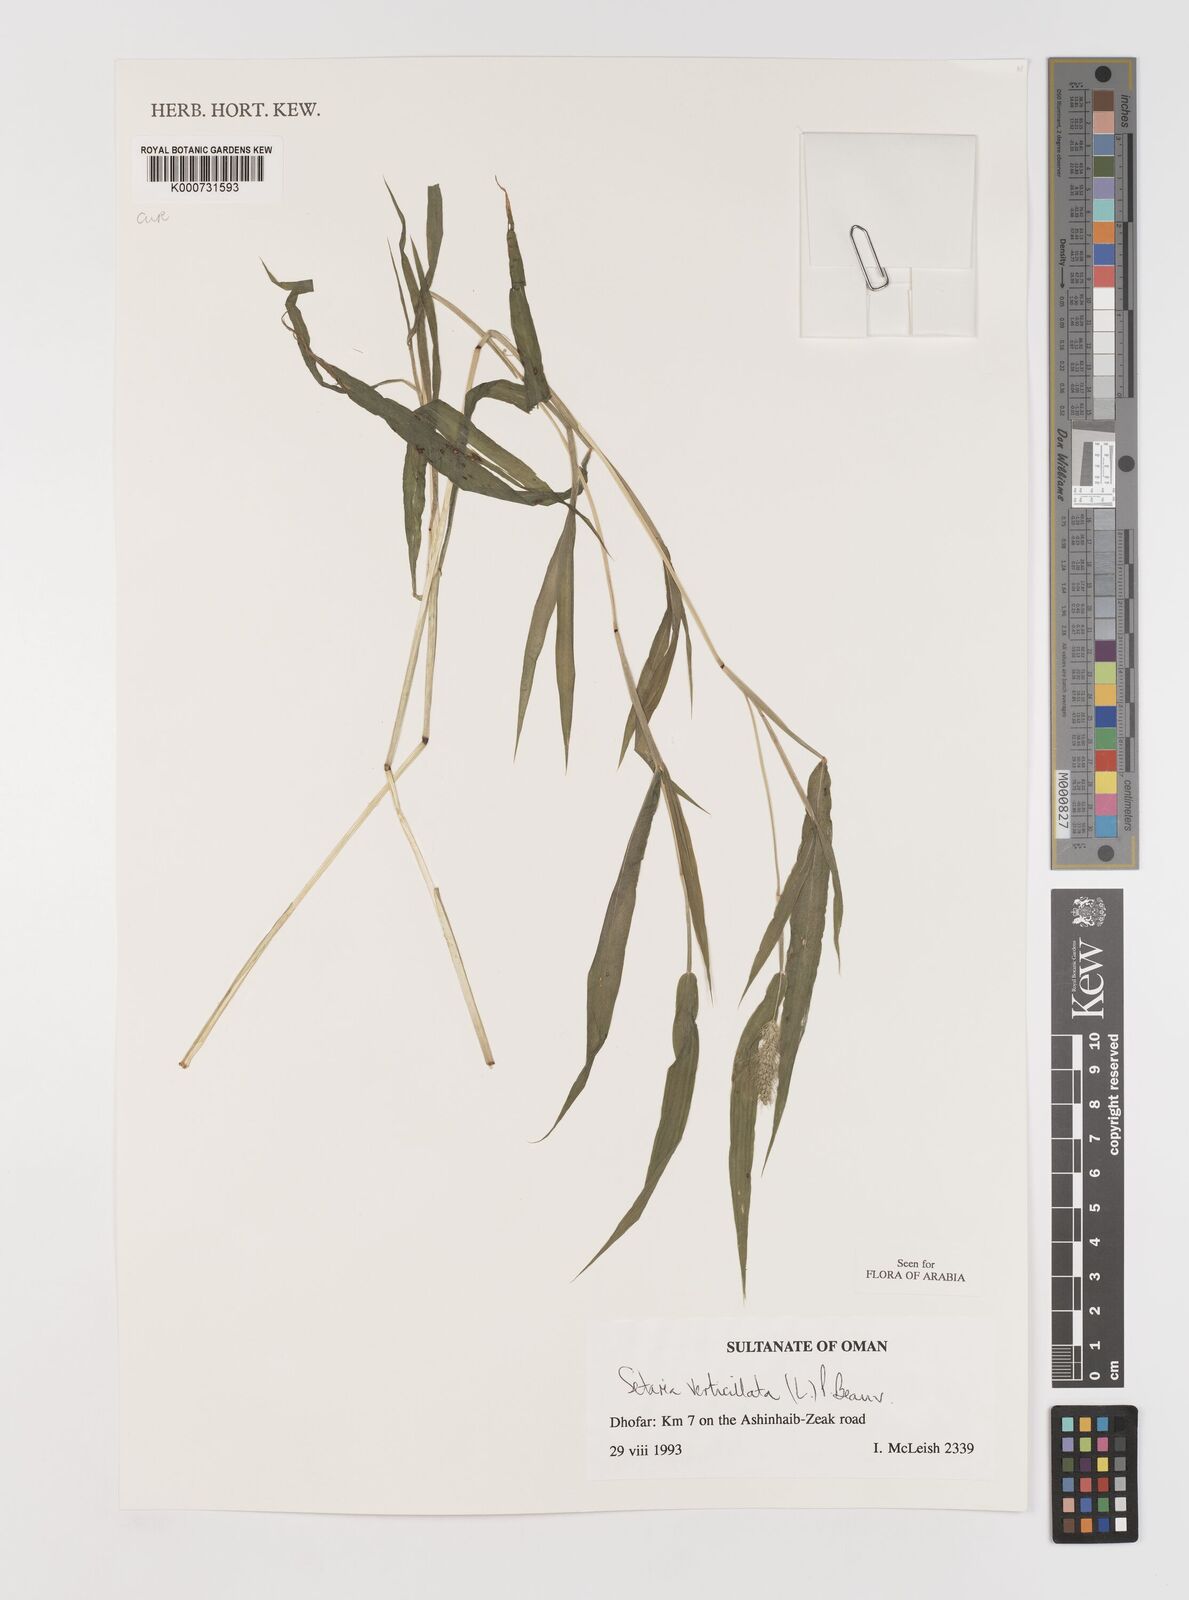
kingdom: Plantae
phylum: Tracheophyta
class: Liliopsida
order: Poales
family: Poaceae
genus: Setaria
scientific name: Setaria verticillata
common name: Hooked bristlegrass
